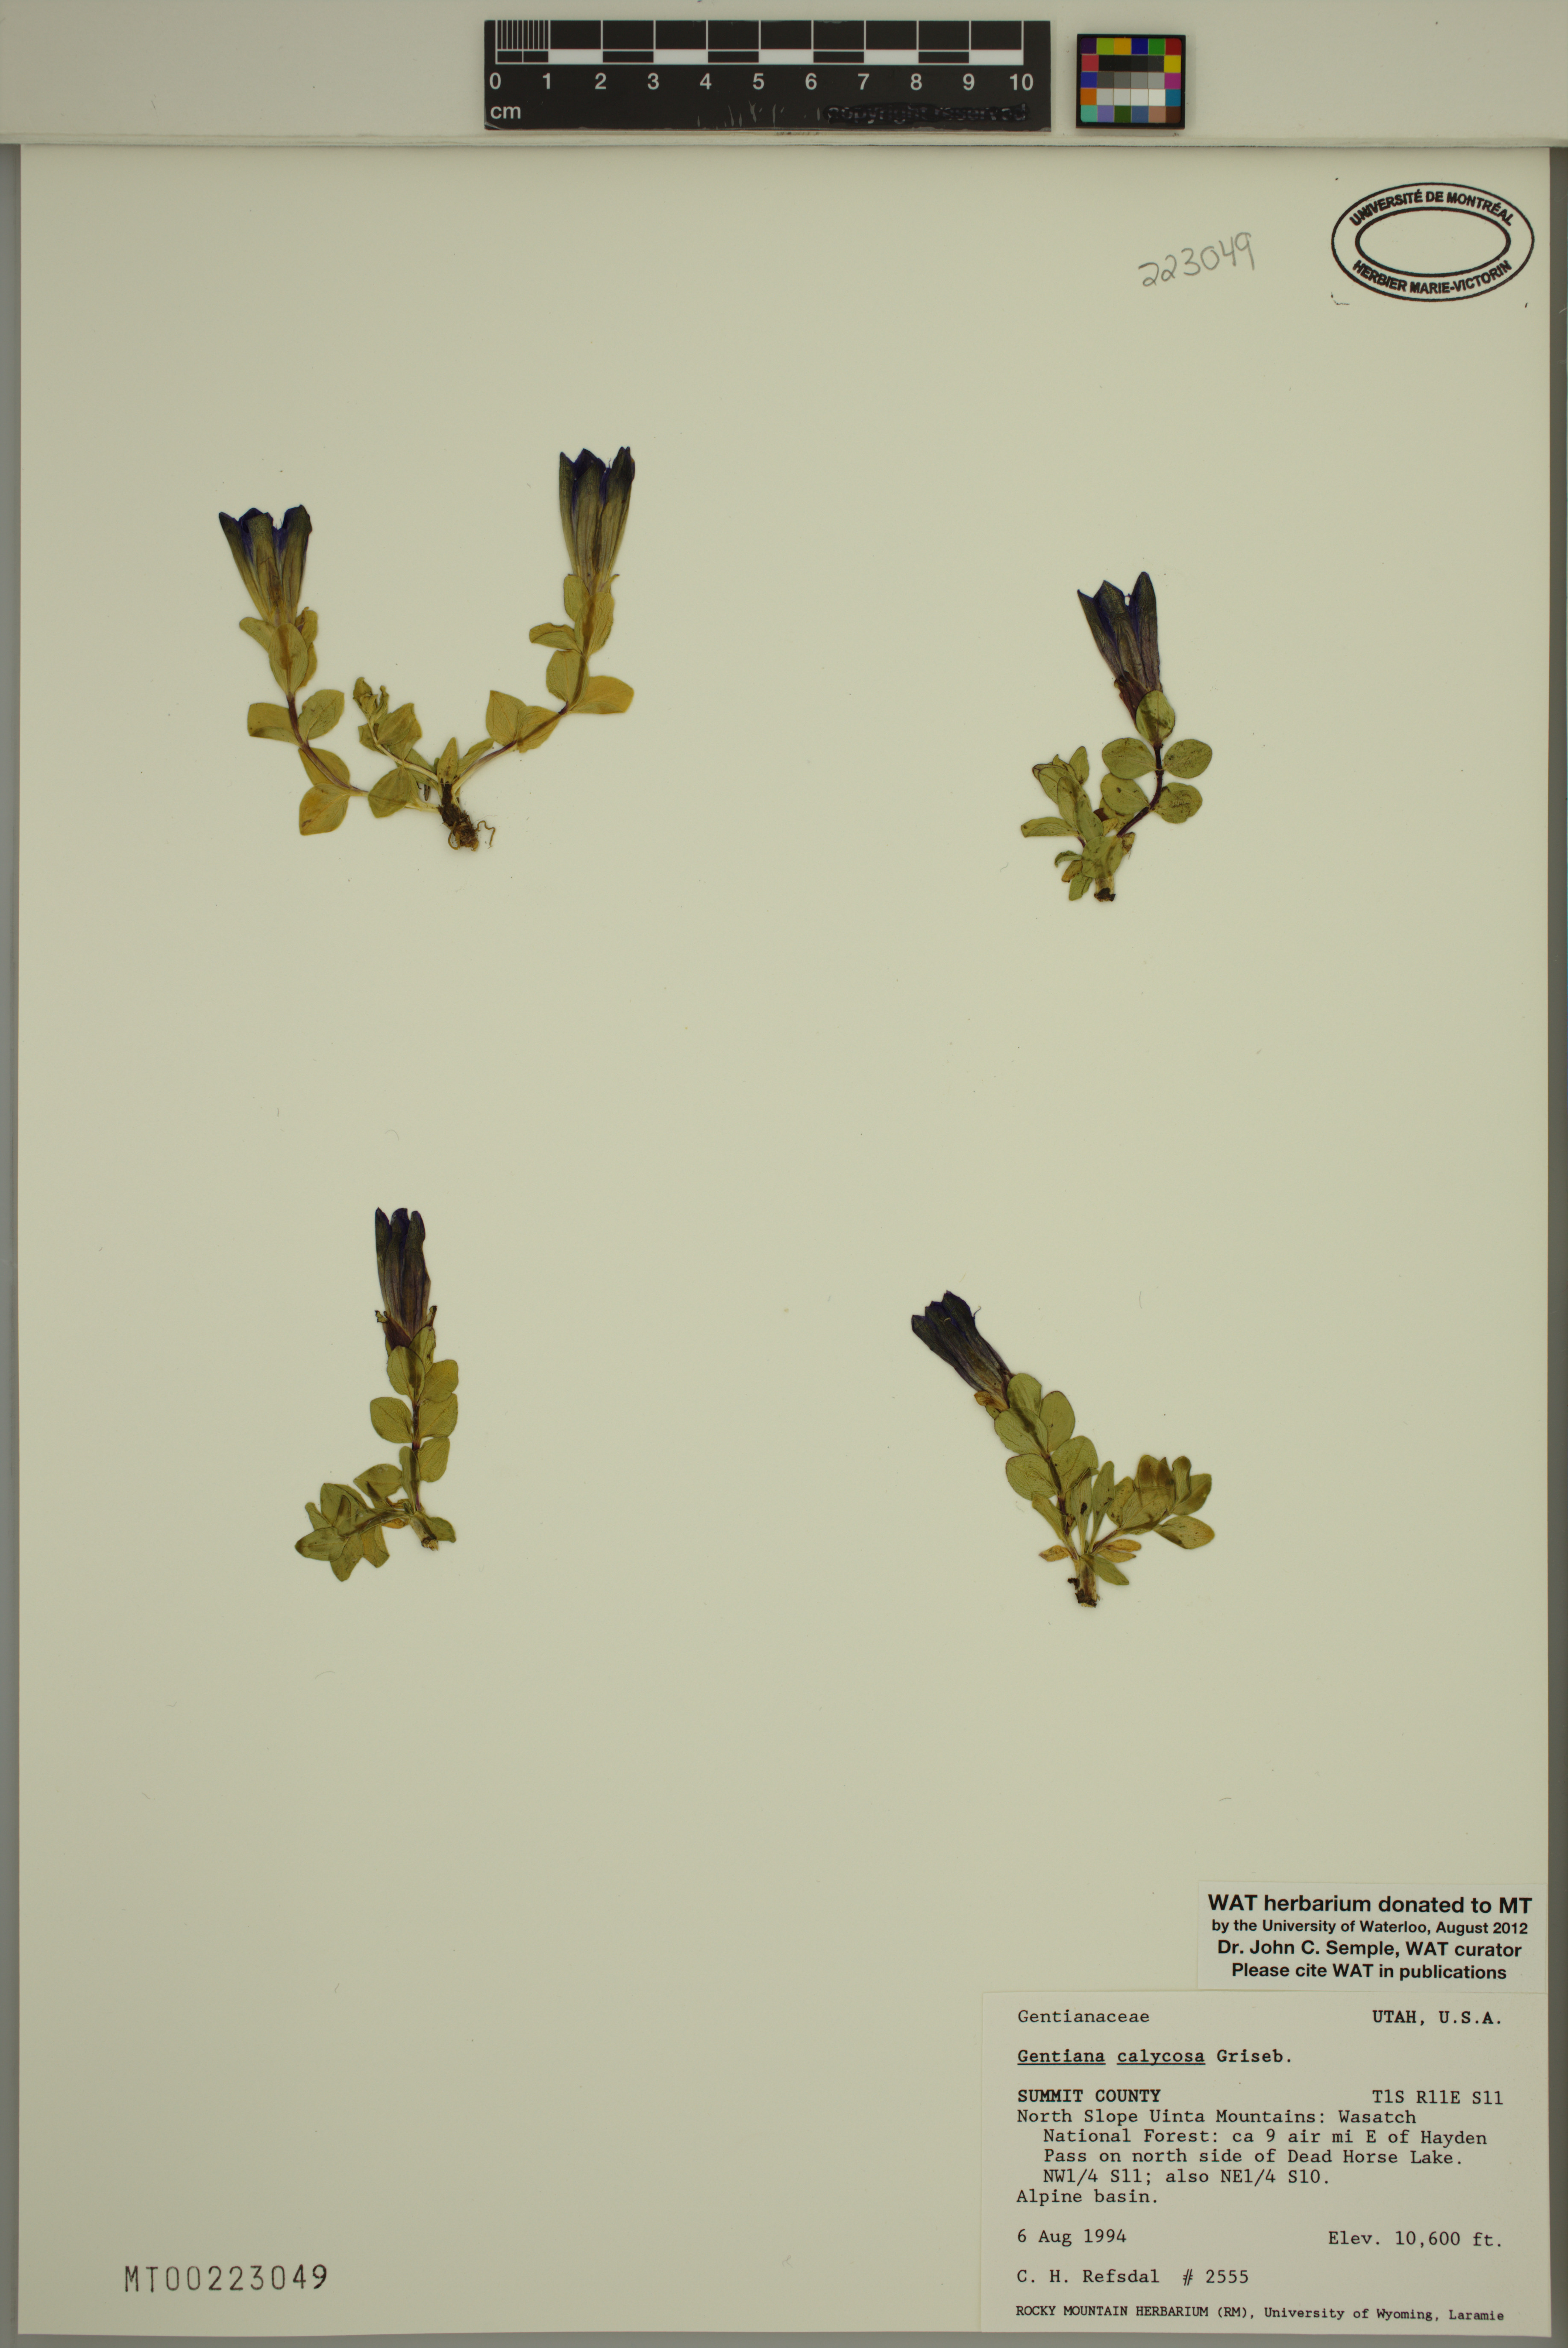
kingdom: Plantae
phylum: Tracheophyta
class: Magnoliopsida
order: Gentianales
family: Gentianaceae
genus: Gentiana
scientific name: Gentiana calycosa
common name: Rainier pleated gentian
